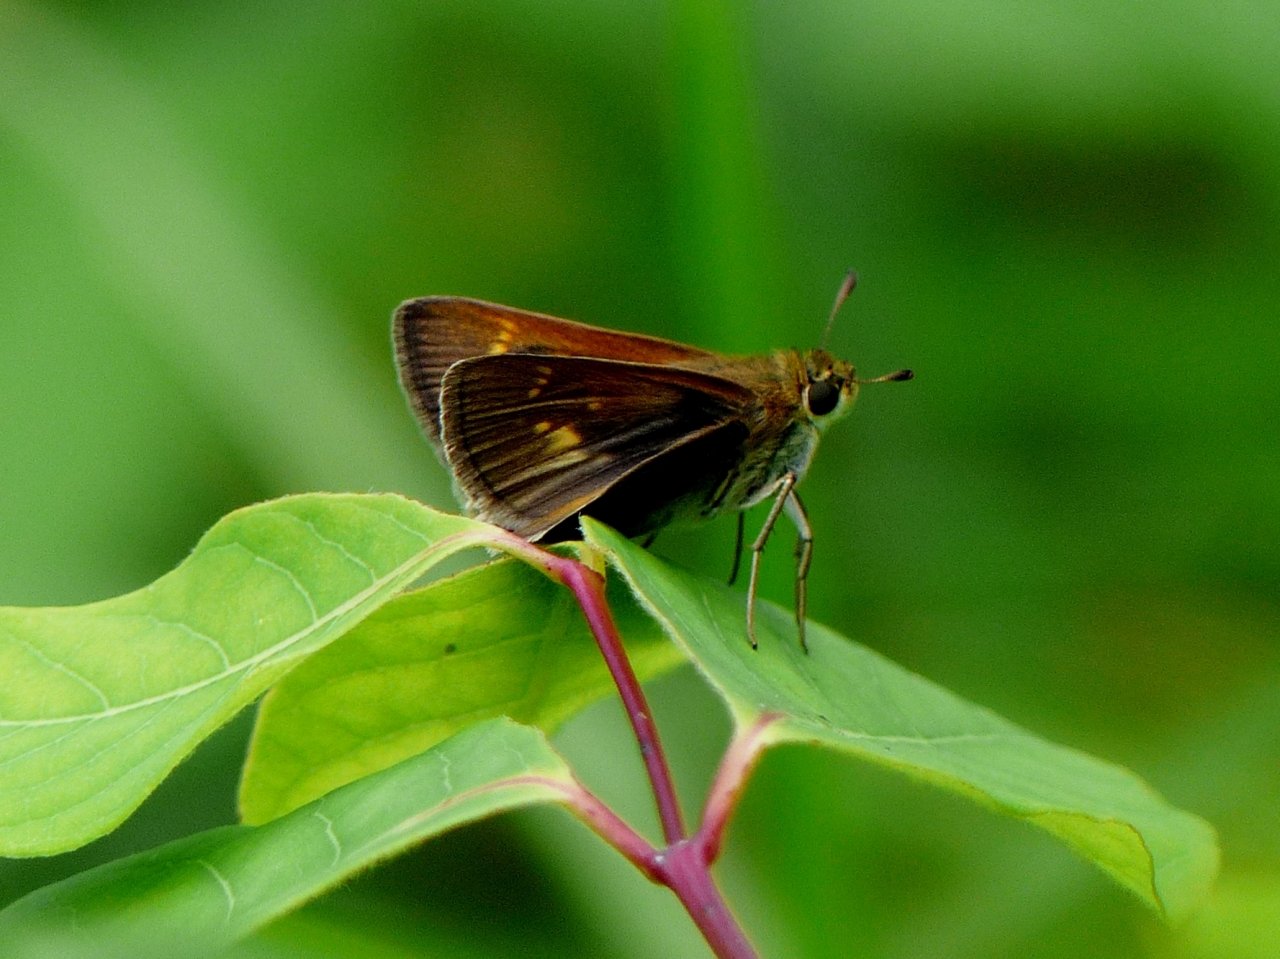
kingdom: Animalia
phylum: Arthropoda
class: Insecta
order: Lepidoptera
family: Hesperiidae
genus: Polites
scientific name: Polites
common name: Crossline Skipper
